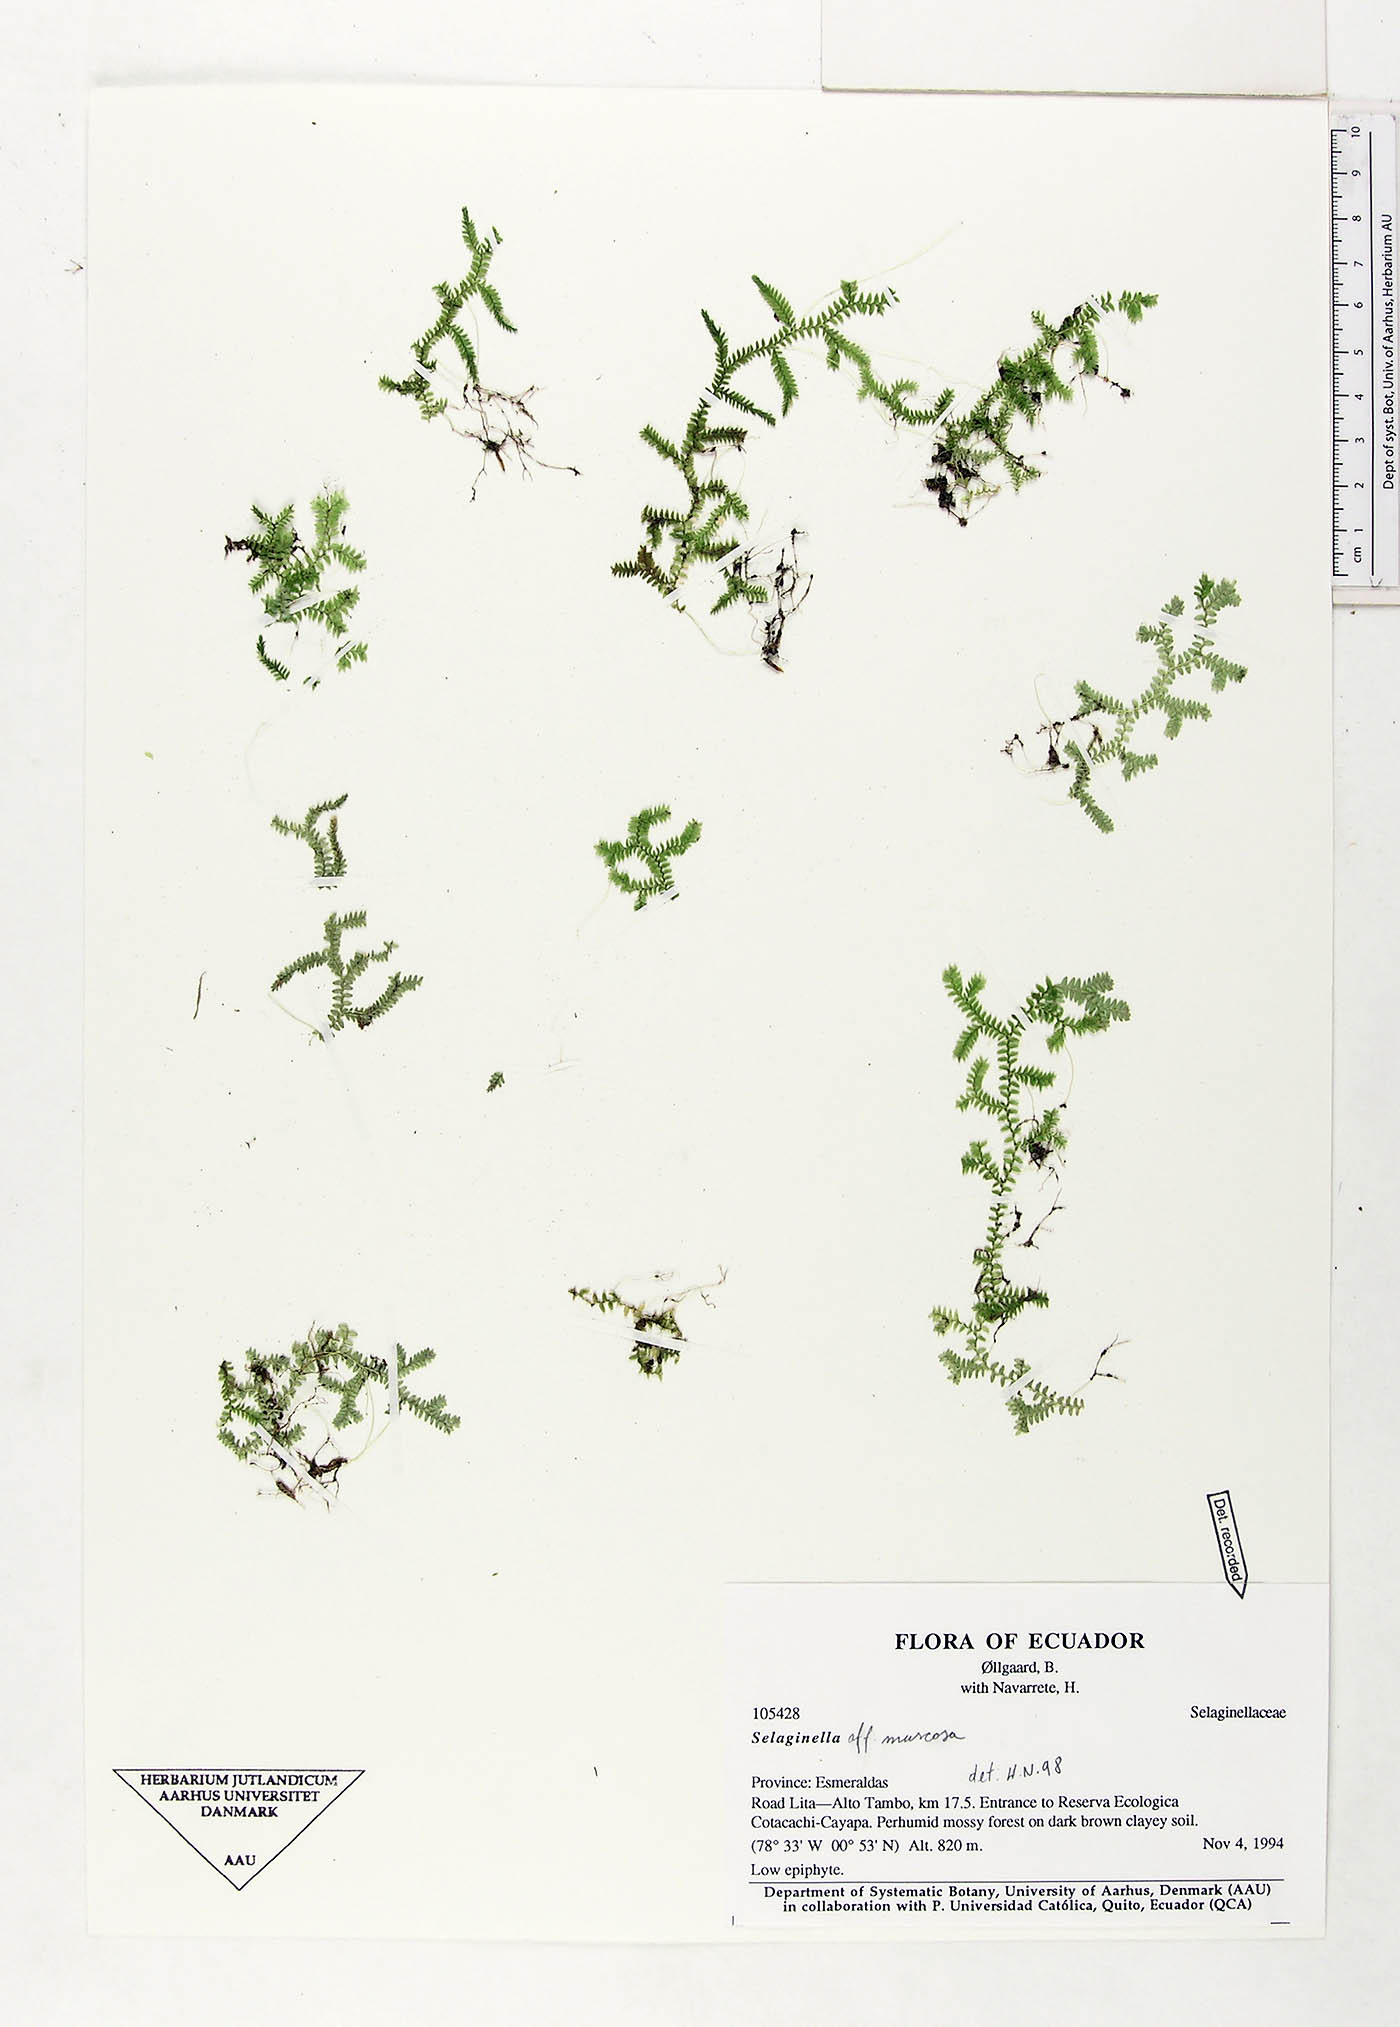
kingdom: Plantae
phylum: Tracheophyta
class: Lycopodiopsida
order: Selaginellales
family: Selaginellaceae
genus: Selaginella
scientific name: Selaginella muscosa
